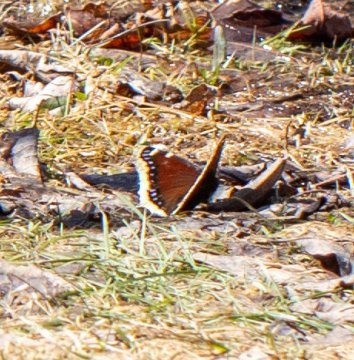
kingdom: Animalia
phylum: Arthropoda
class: Insecta
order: Lepidoptera
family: Nymphalidae
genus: Nymphalis
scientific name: Nymphalis antiopa
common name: Mourning Cloak
